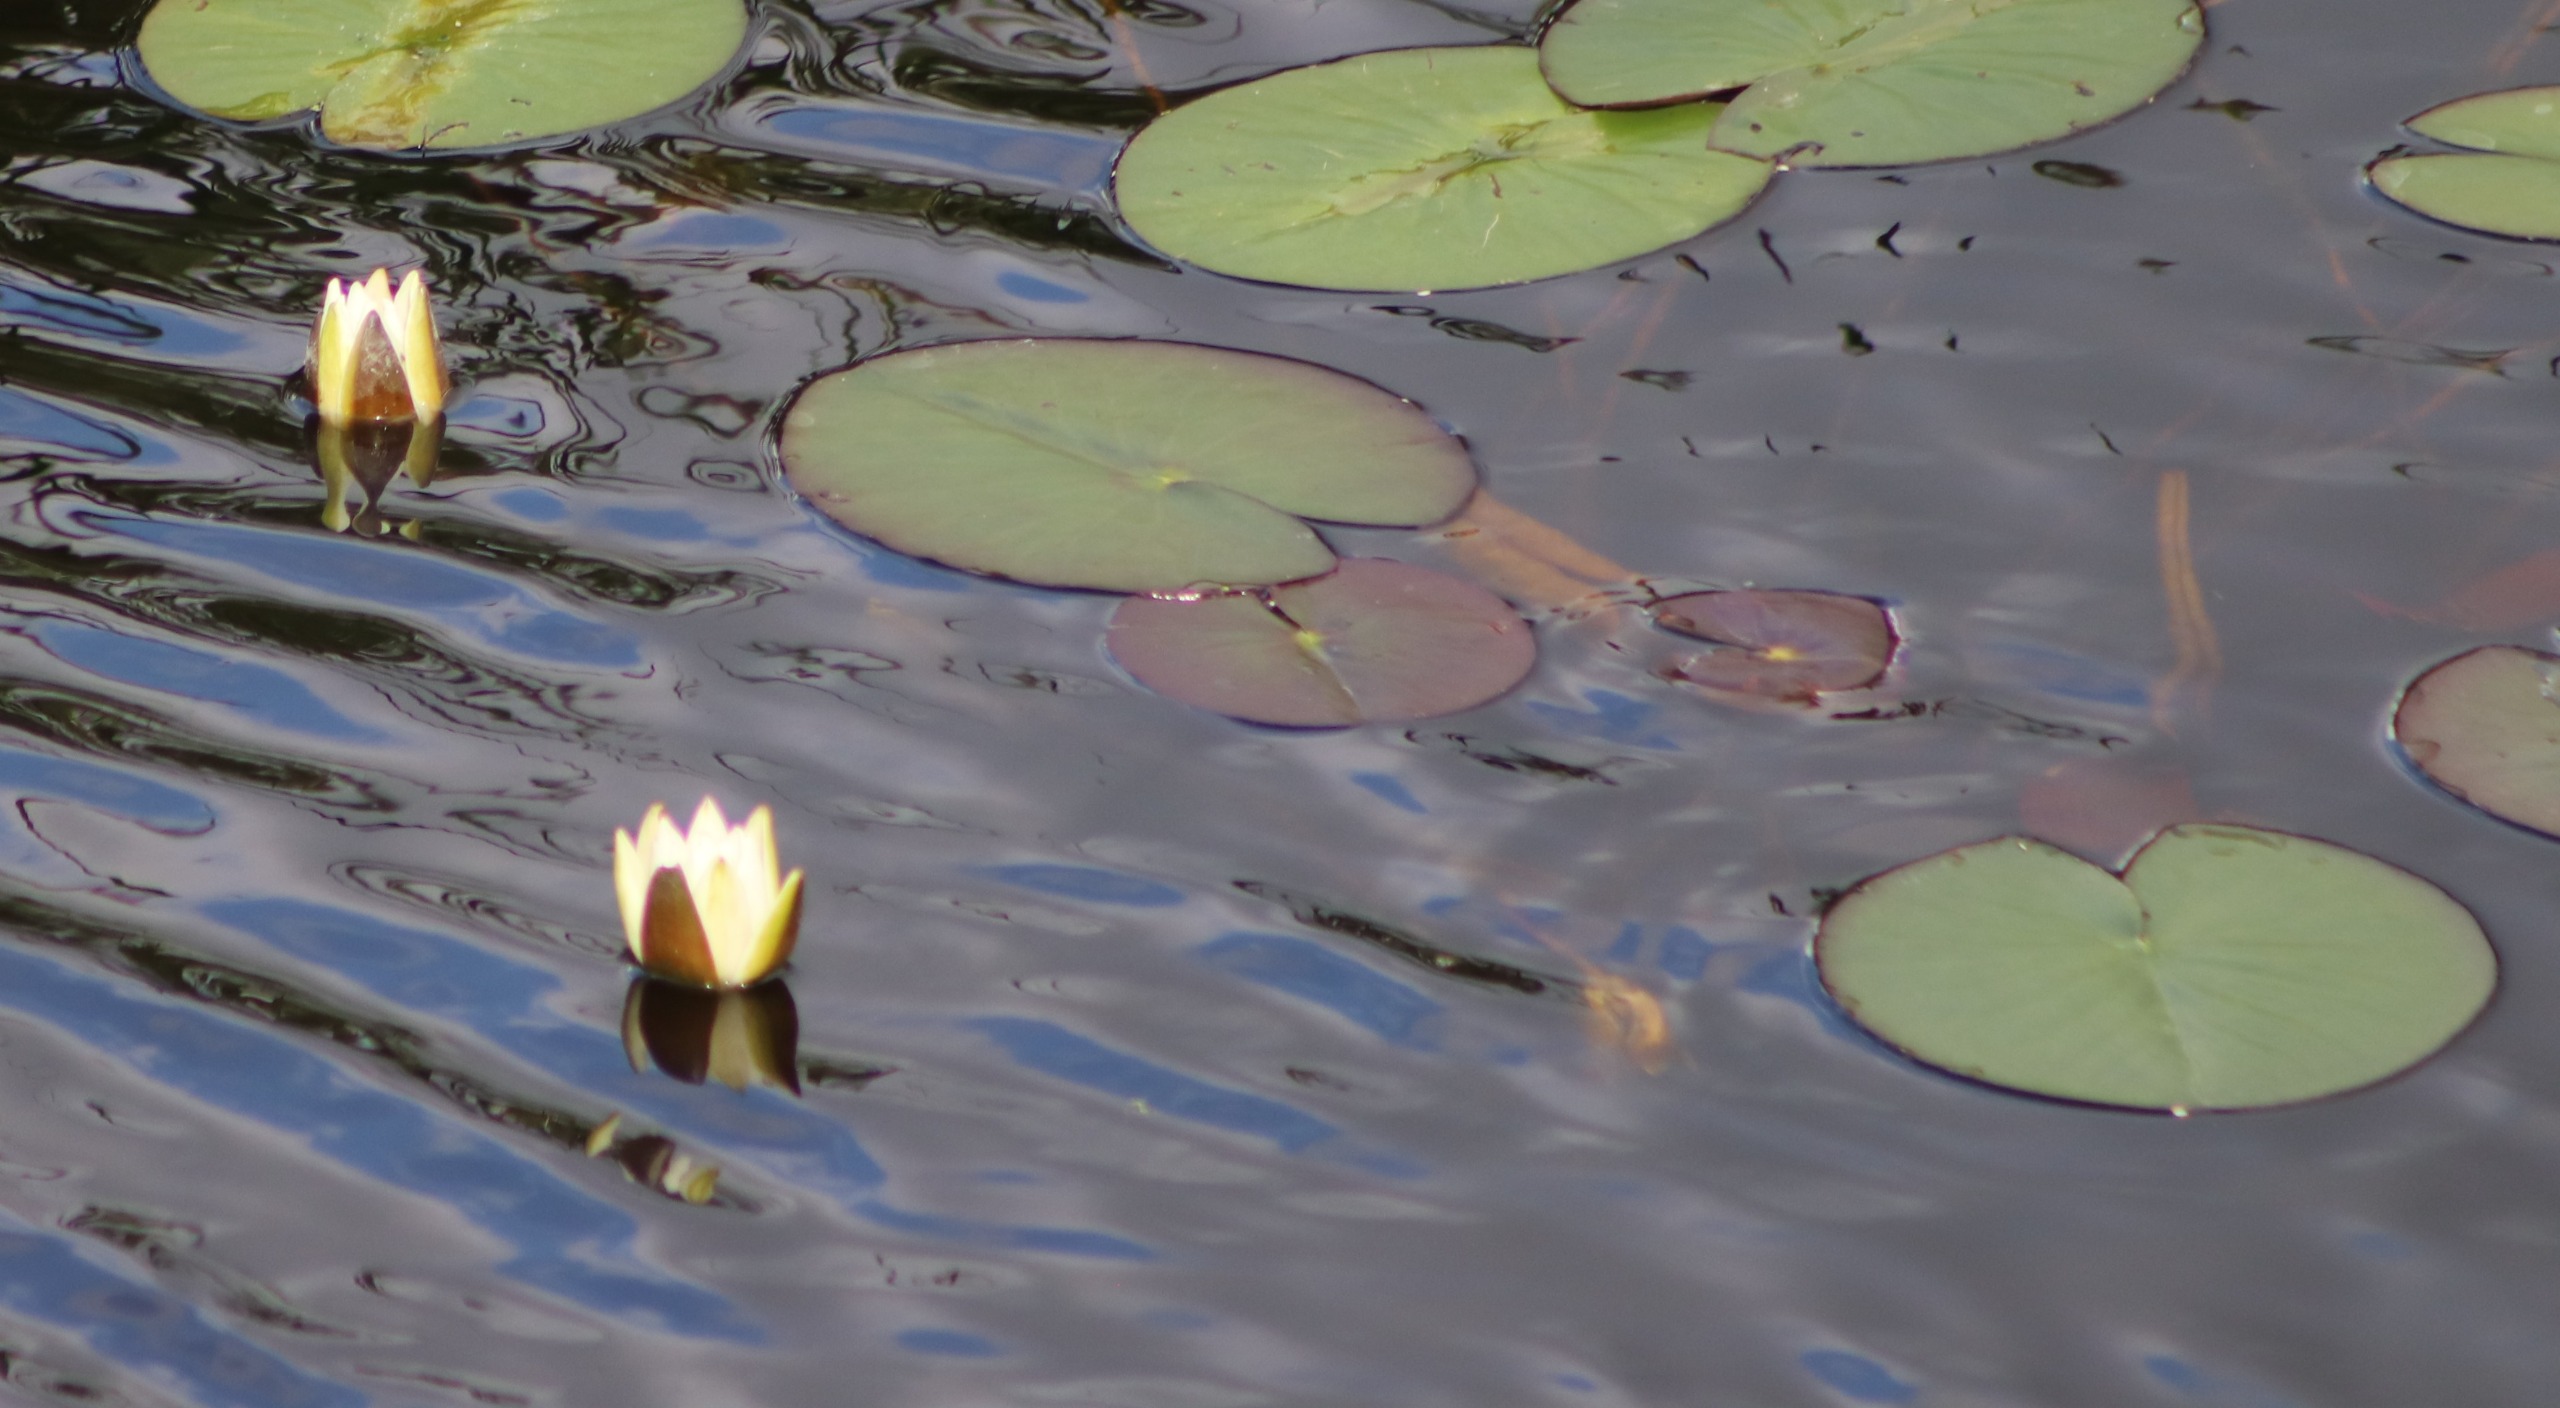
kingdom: Plantae
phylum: Tracheophyta
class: Magnoliopsida
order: Nymphaeales
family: Nymphaeaceae
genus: Nymphaea
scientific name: Nymphaea alba
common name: Hvid åkande
